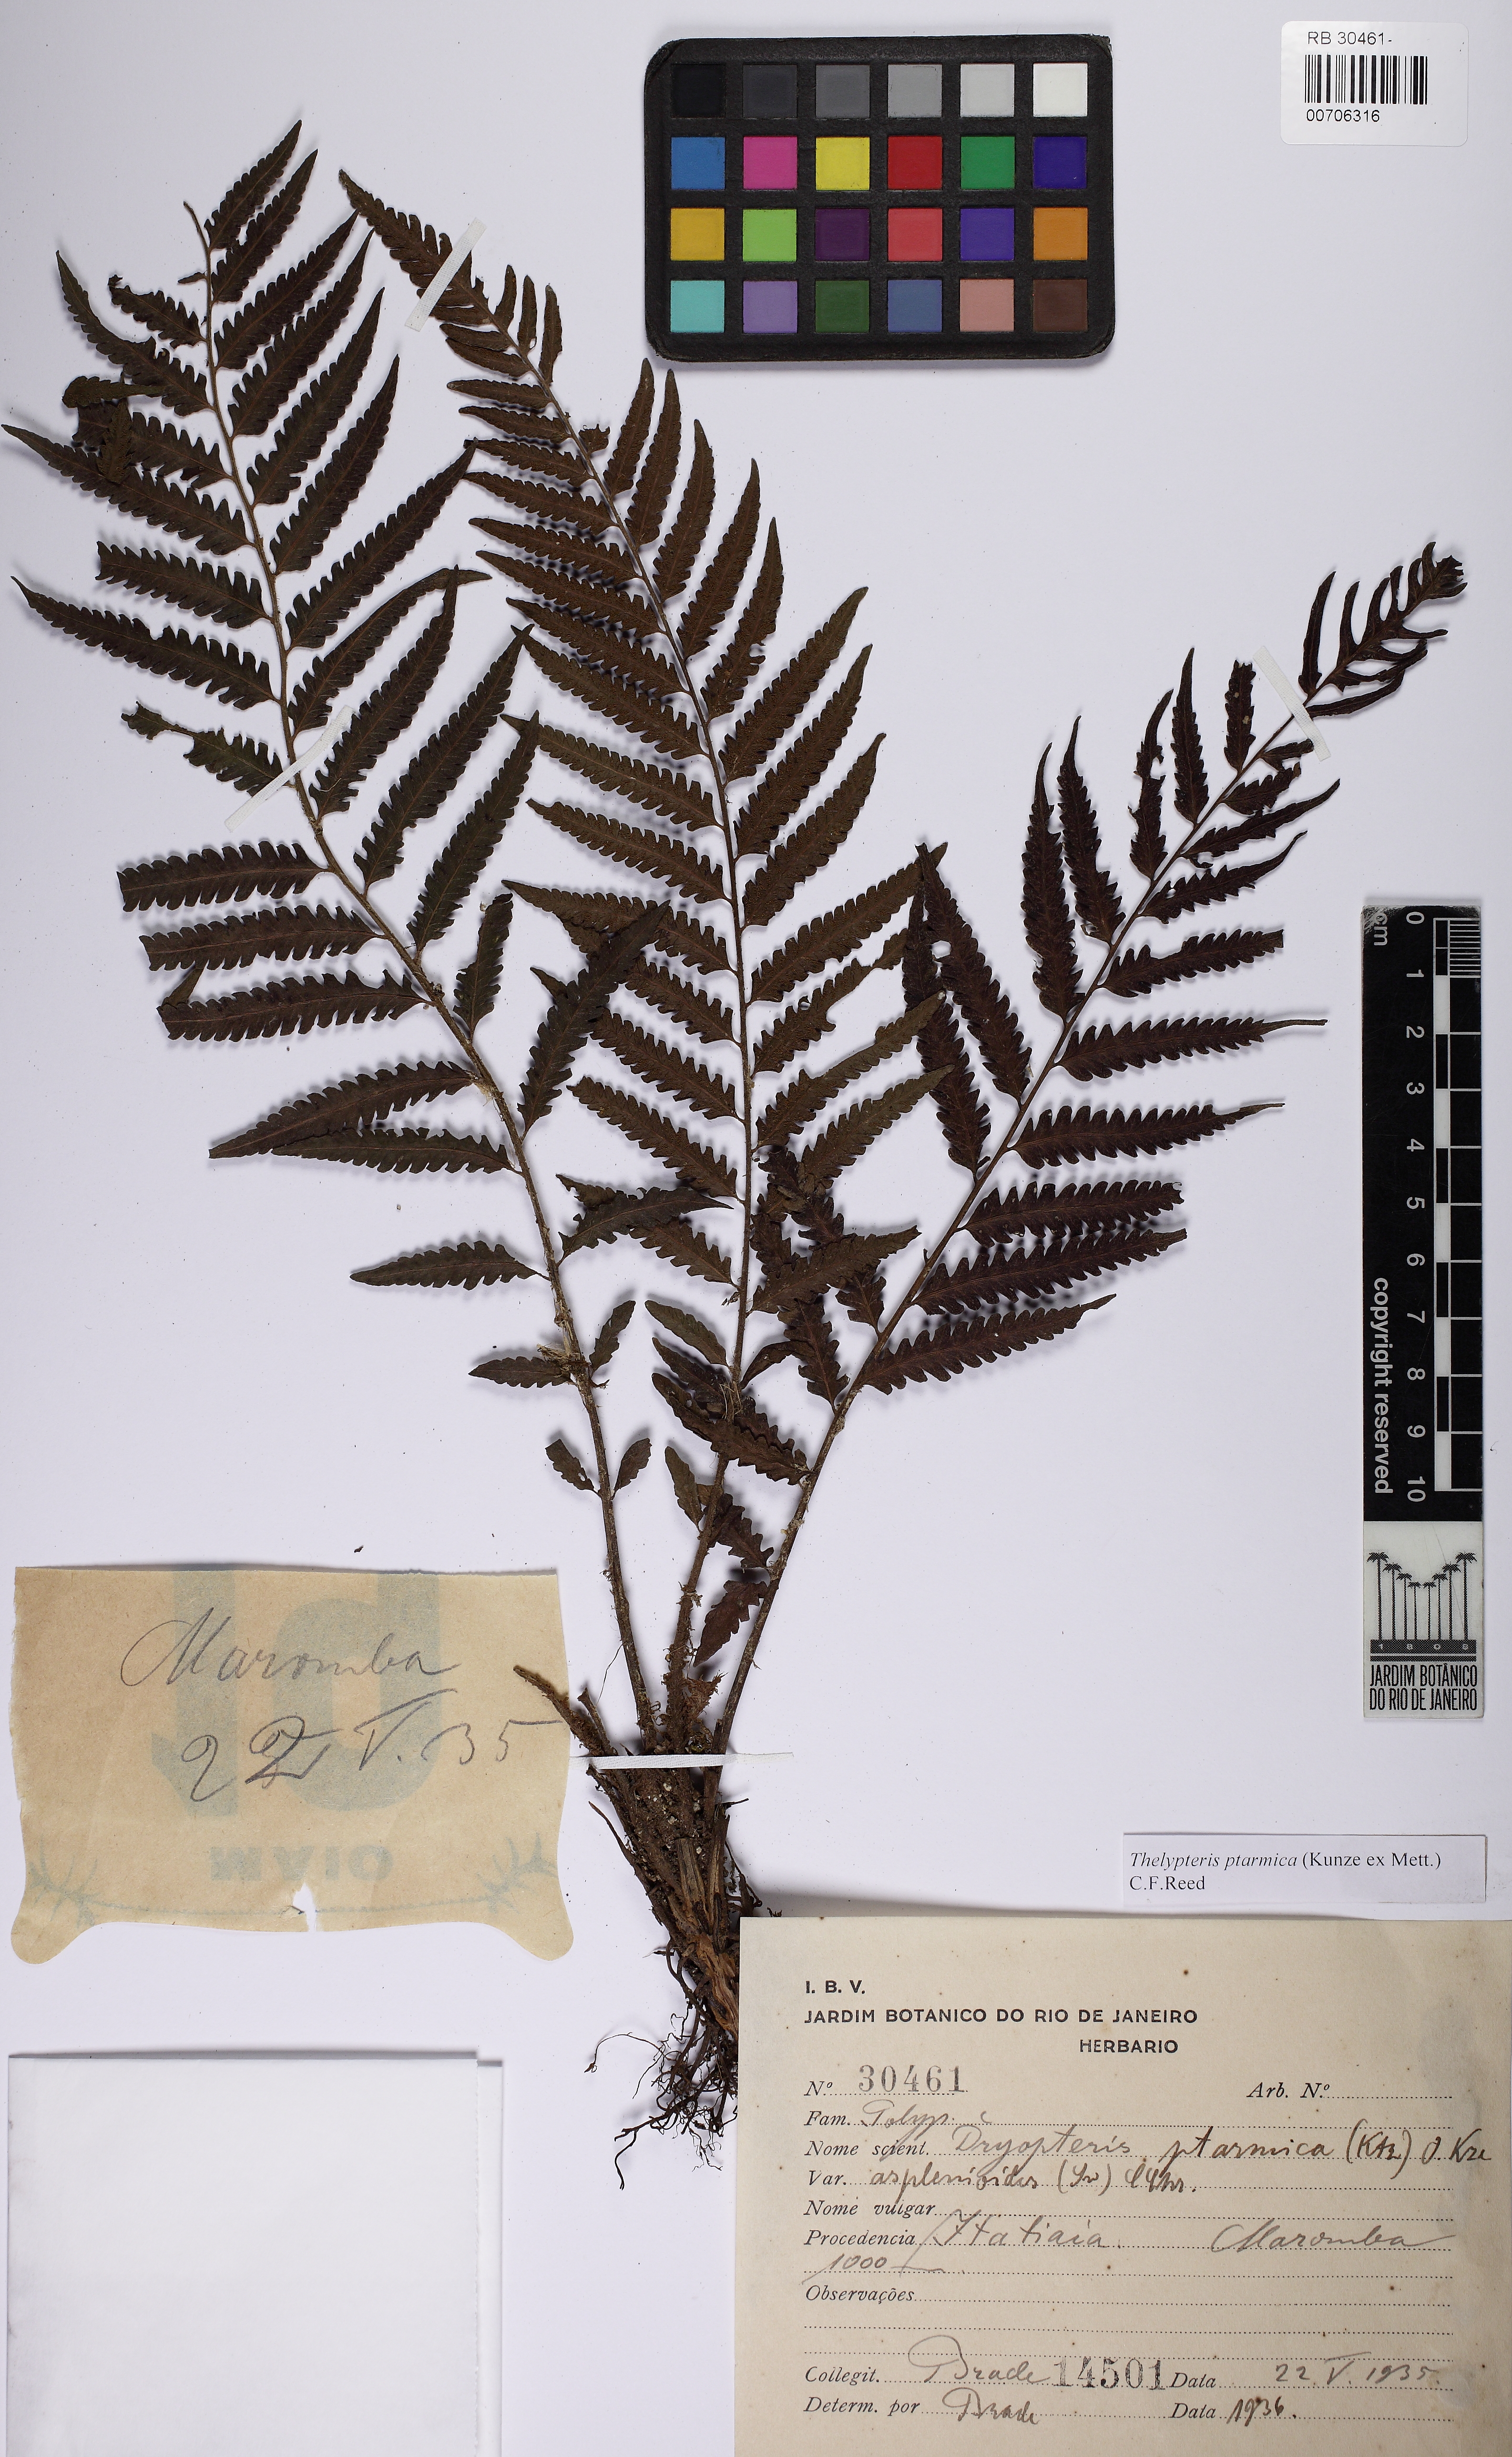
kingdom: Plantae
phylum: Tracheophyta
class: Polypodiopsida
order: Polypodiales
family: Thelypteridaceae
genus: Amauropelta
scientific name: Amauropelta ptarmica
